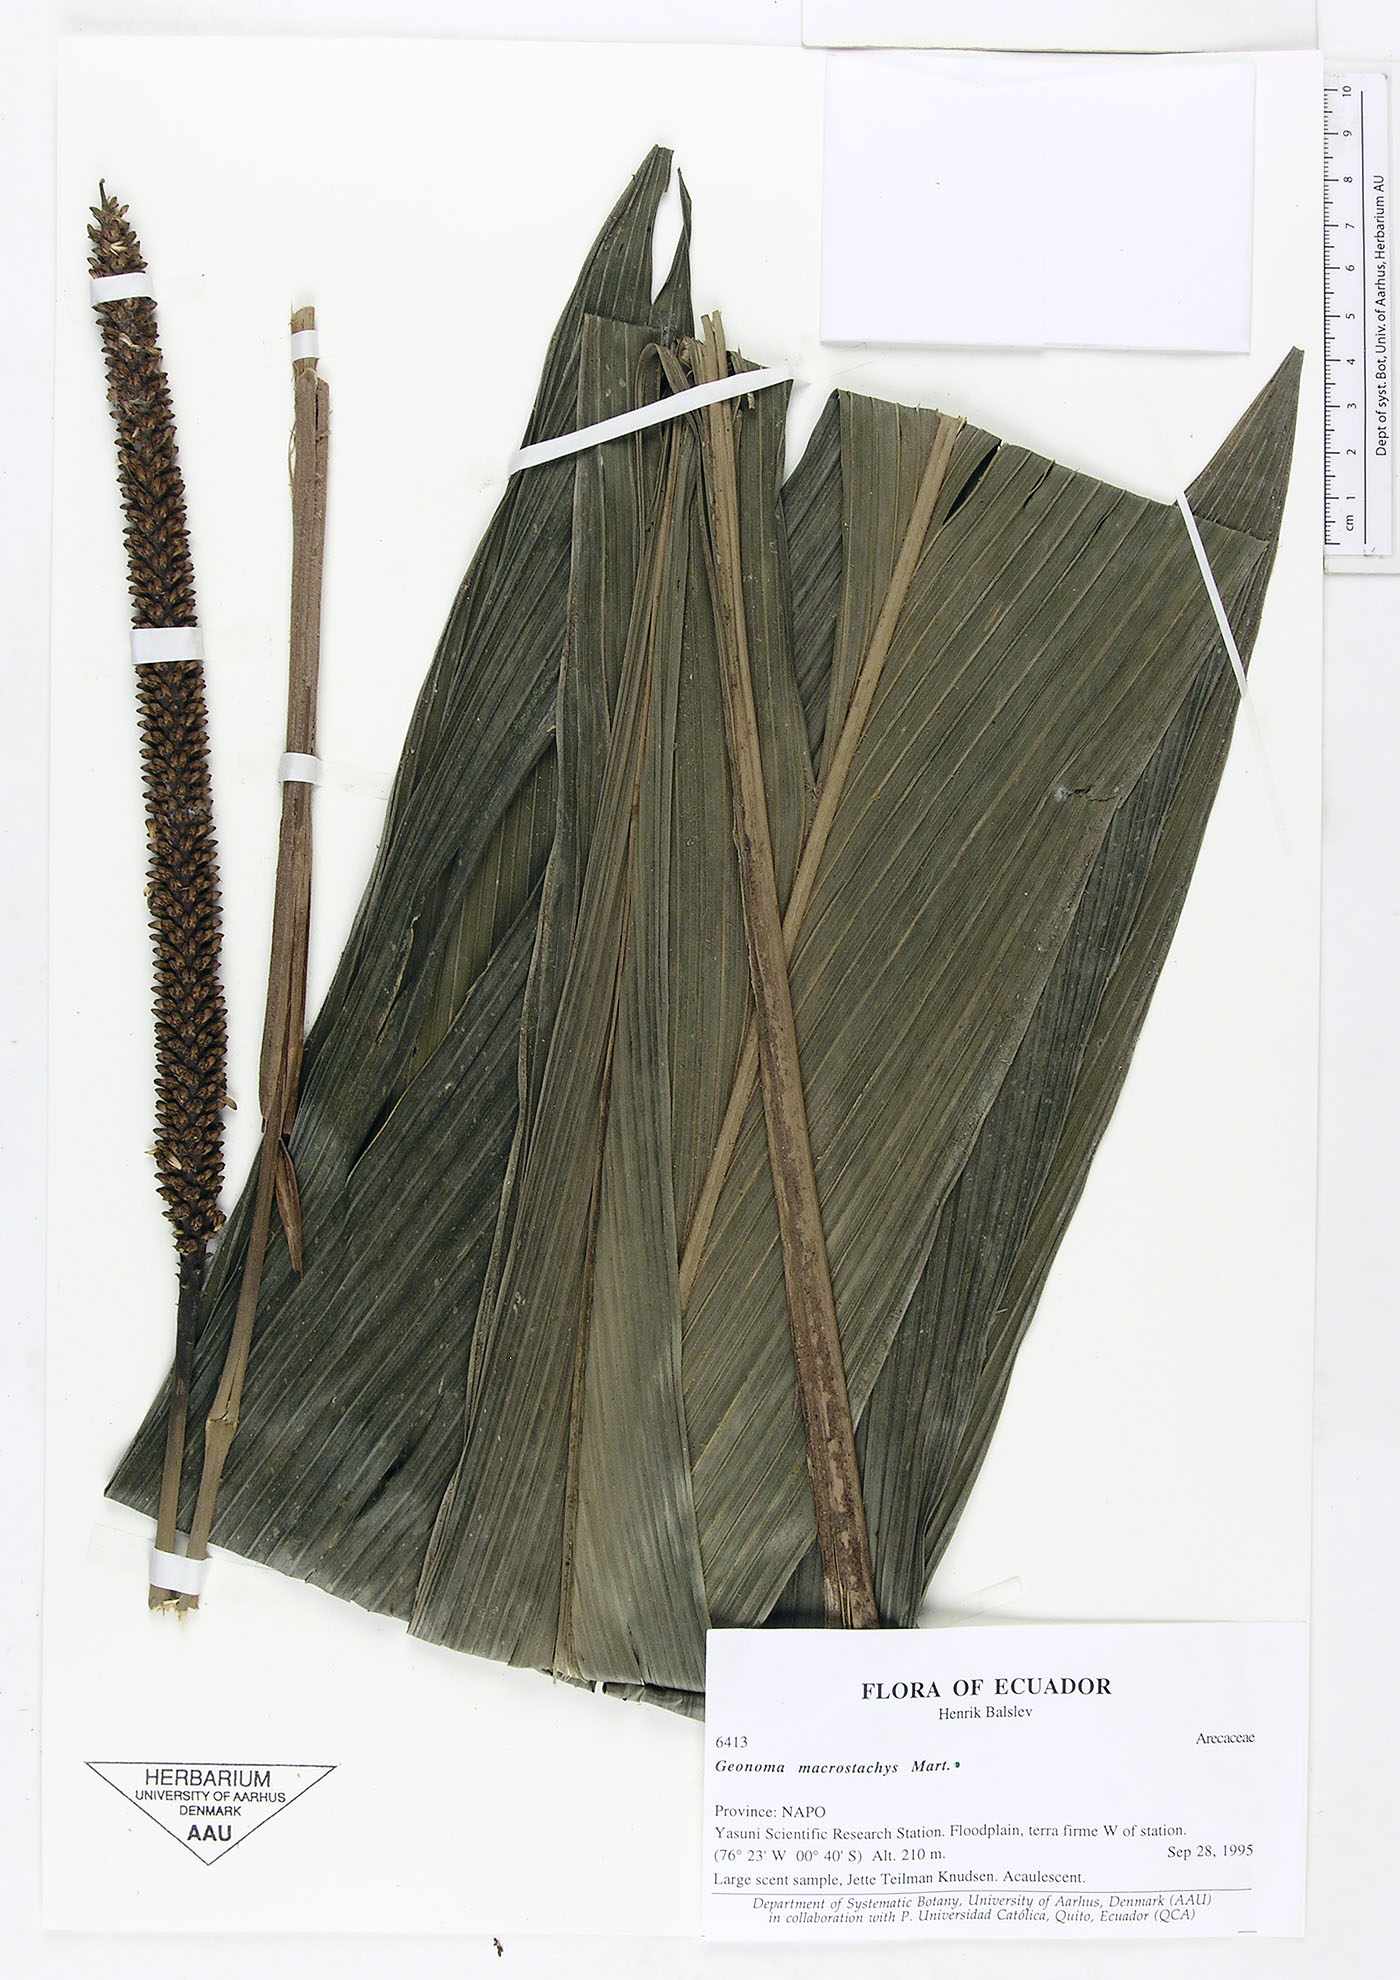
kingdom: Plantae
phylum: Tracheophyta
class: Liliopsida
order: Arecales
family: Arecaceae
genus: Geonoma
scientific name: Geonoma macrostachys
